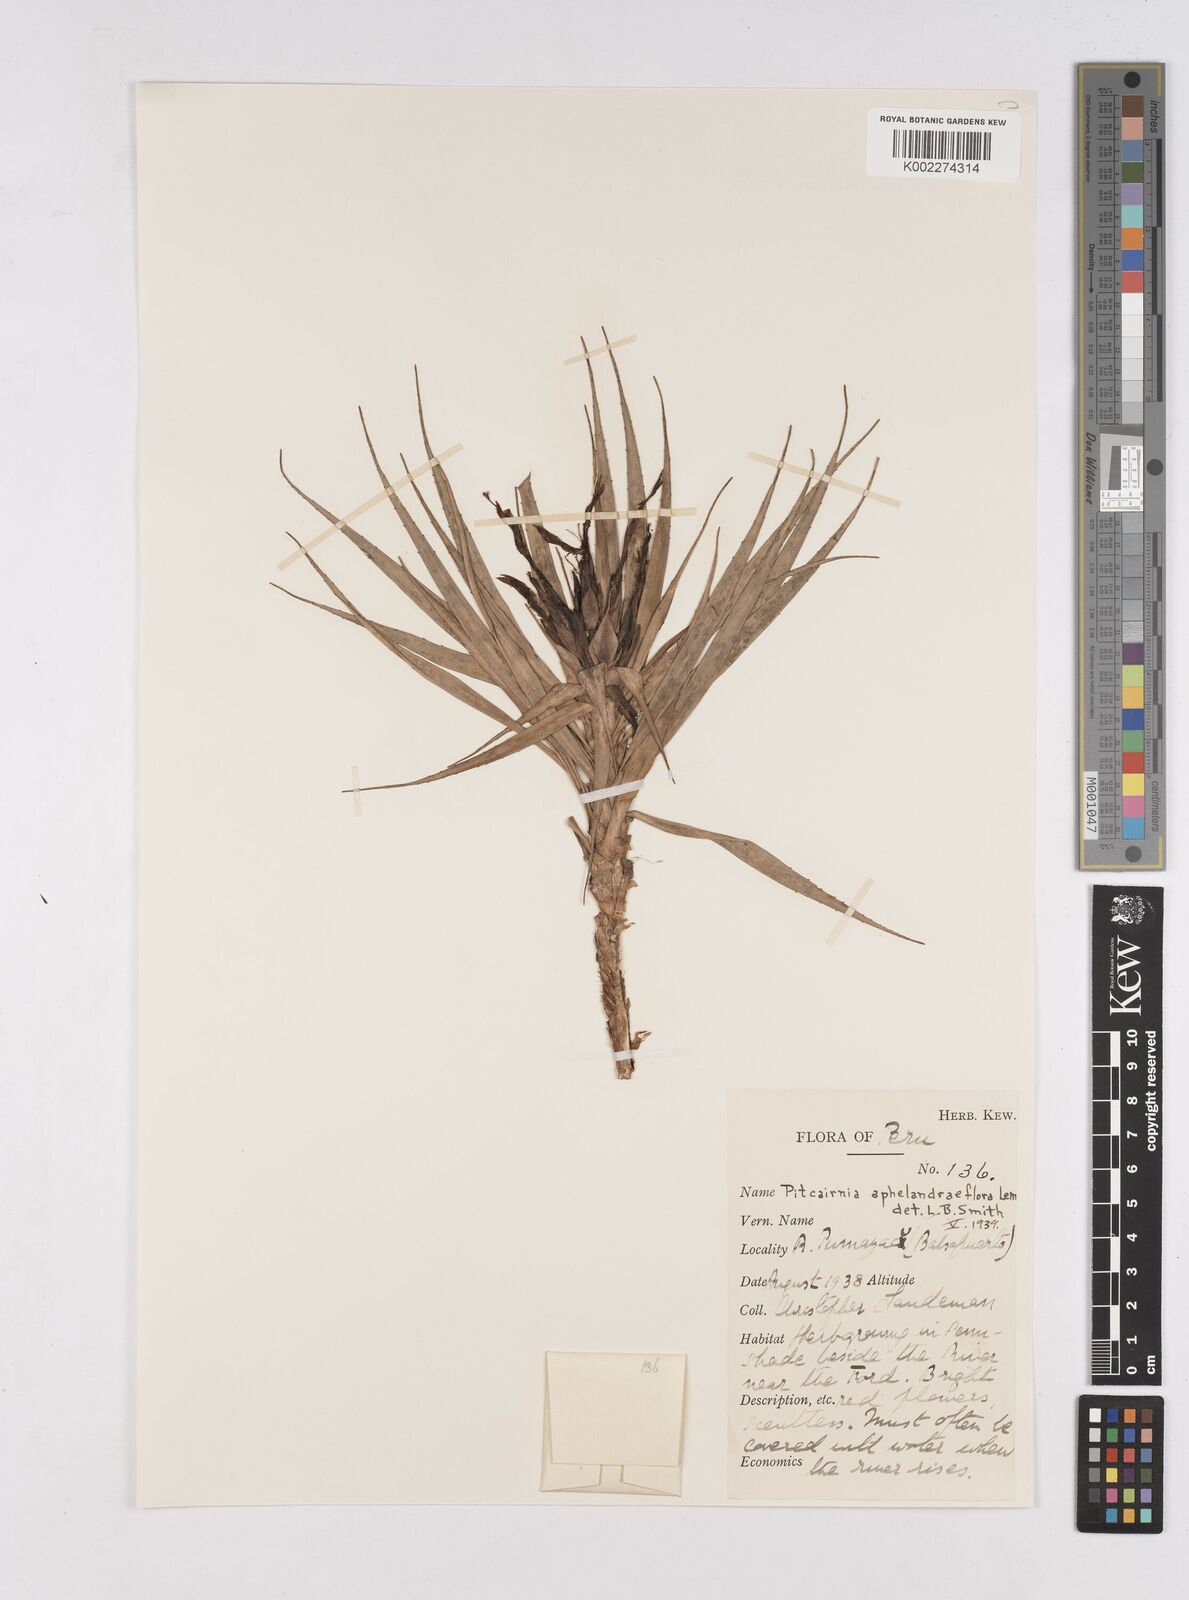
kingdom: Plantae
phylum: Tracheophyta
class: Liliopsida
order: Poales
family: Bromeliaceae
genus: Pitcairnia
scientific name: Pitcairnia aphelandriflora
